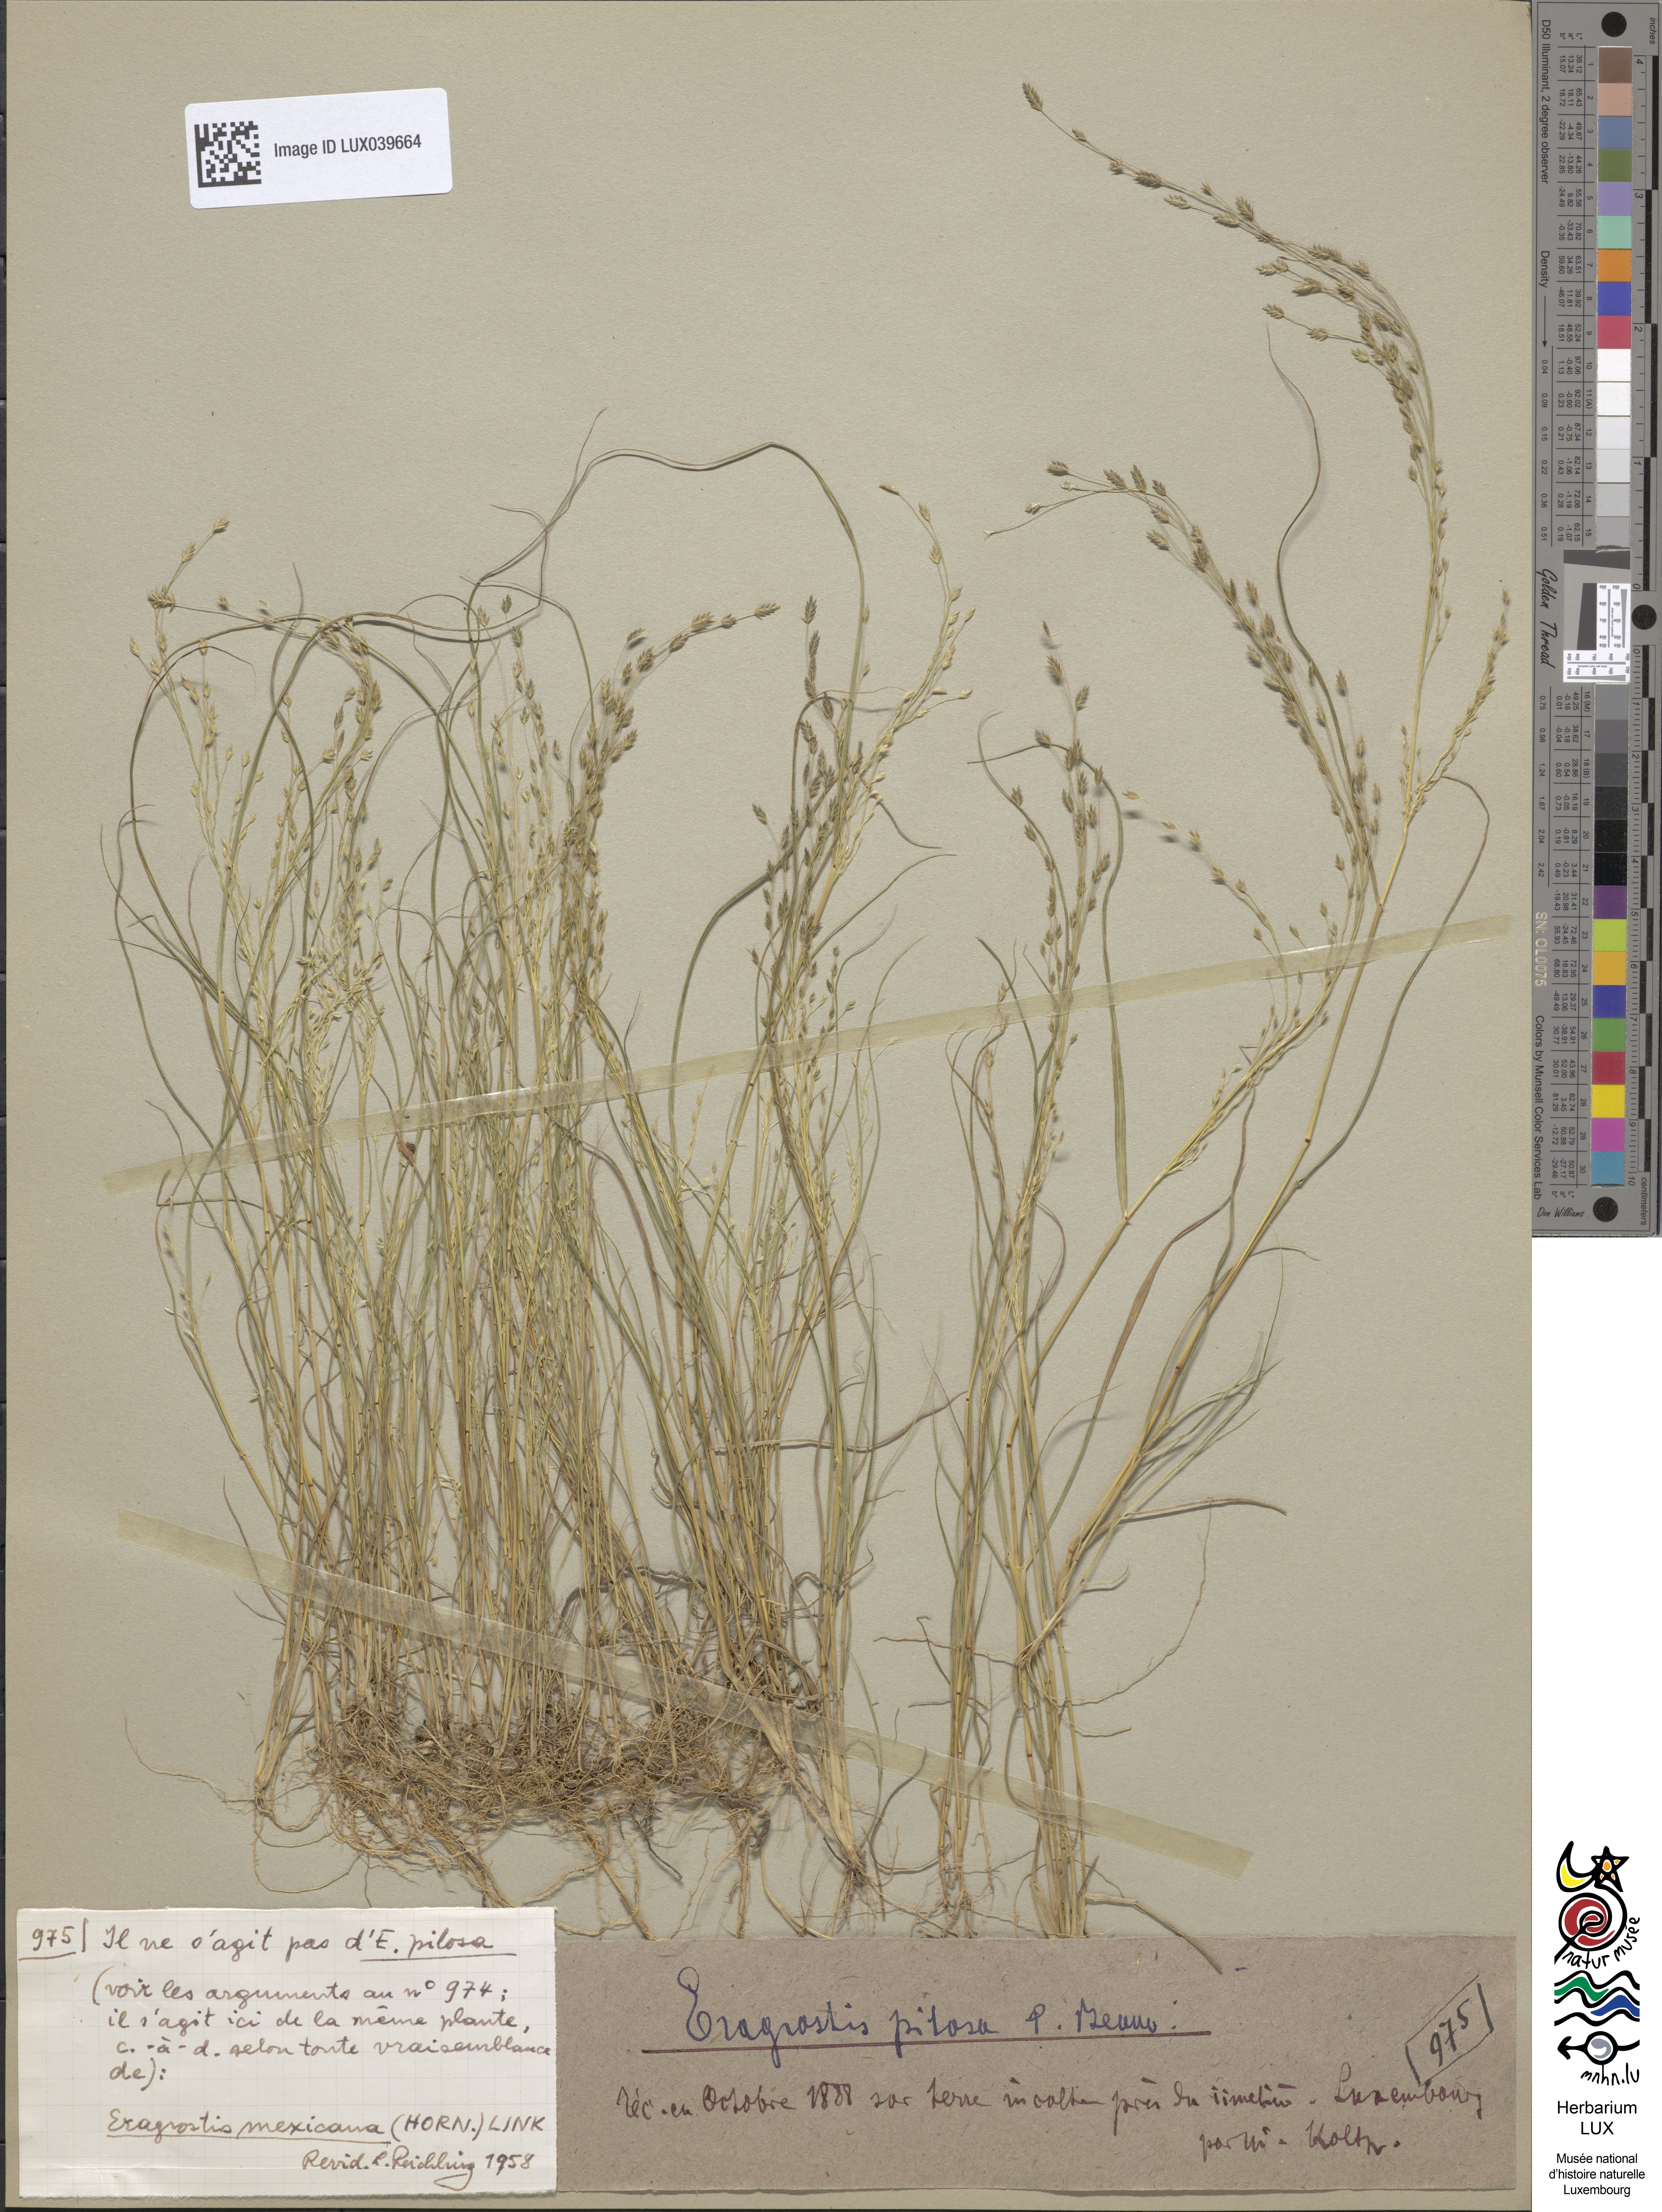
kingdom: Plantae
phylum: Tracheophyta
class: Liliopsida
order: Poales
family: Poaceae
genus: Eragrostis
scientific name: Eragrostis mexicana
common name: Mexican love grass
